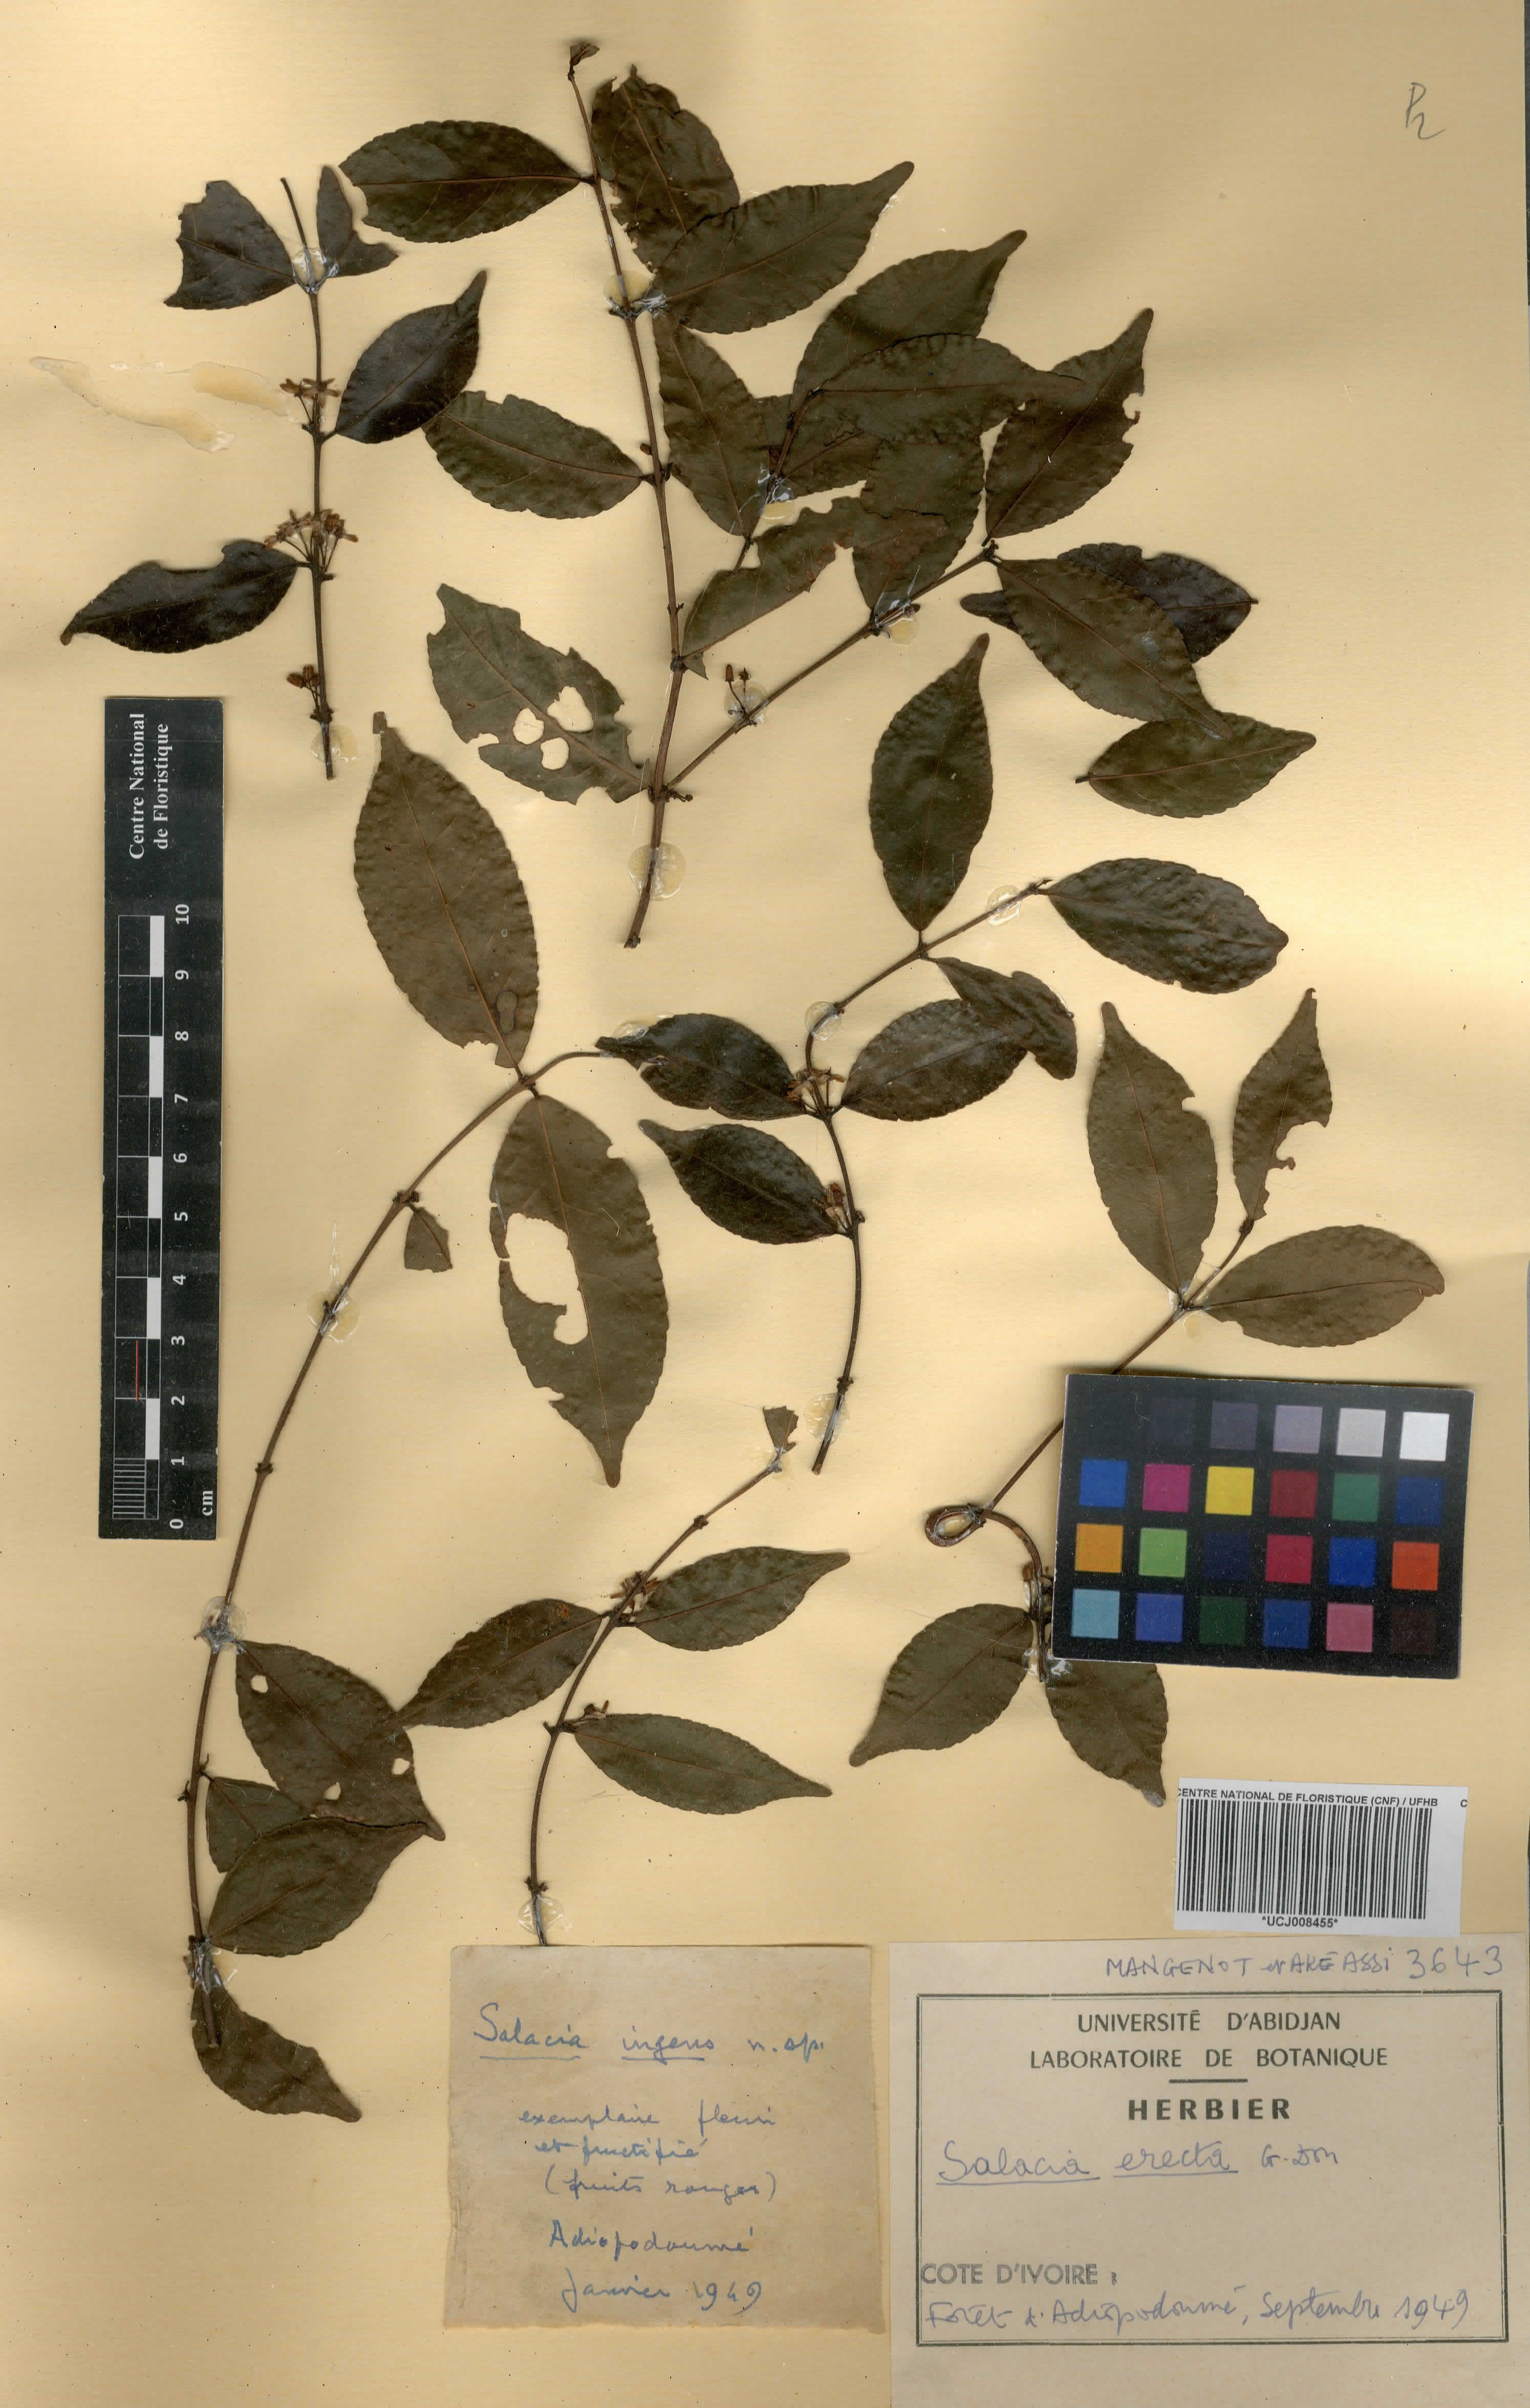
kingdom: Plantae
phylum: Tracheophyta
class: Magnoliopsida
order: Celastrales
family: Celastraceae
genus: Salacia
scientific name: Salacia erecta
